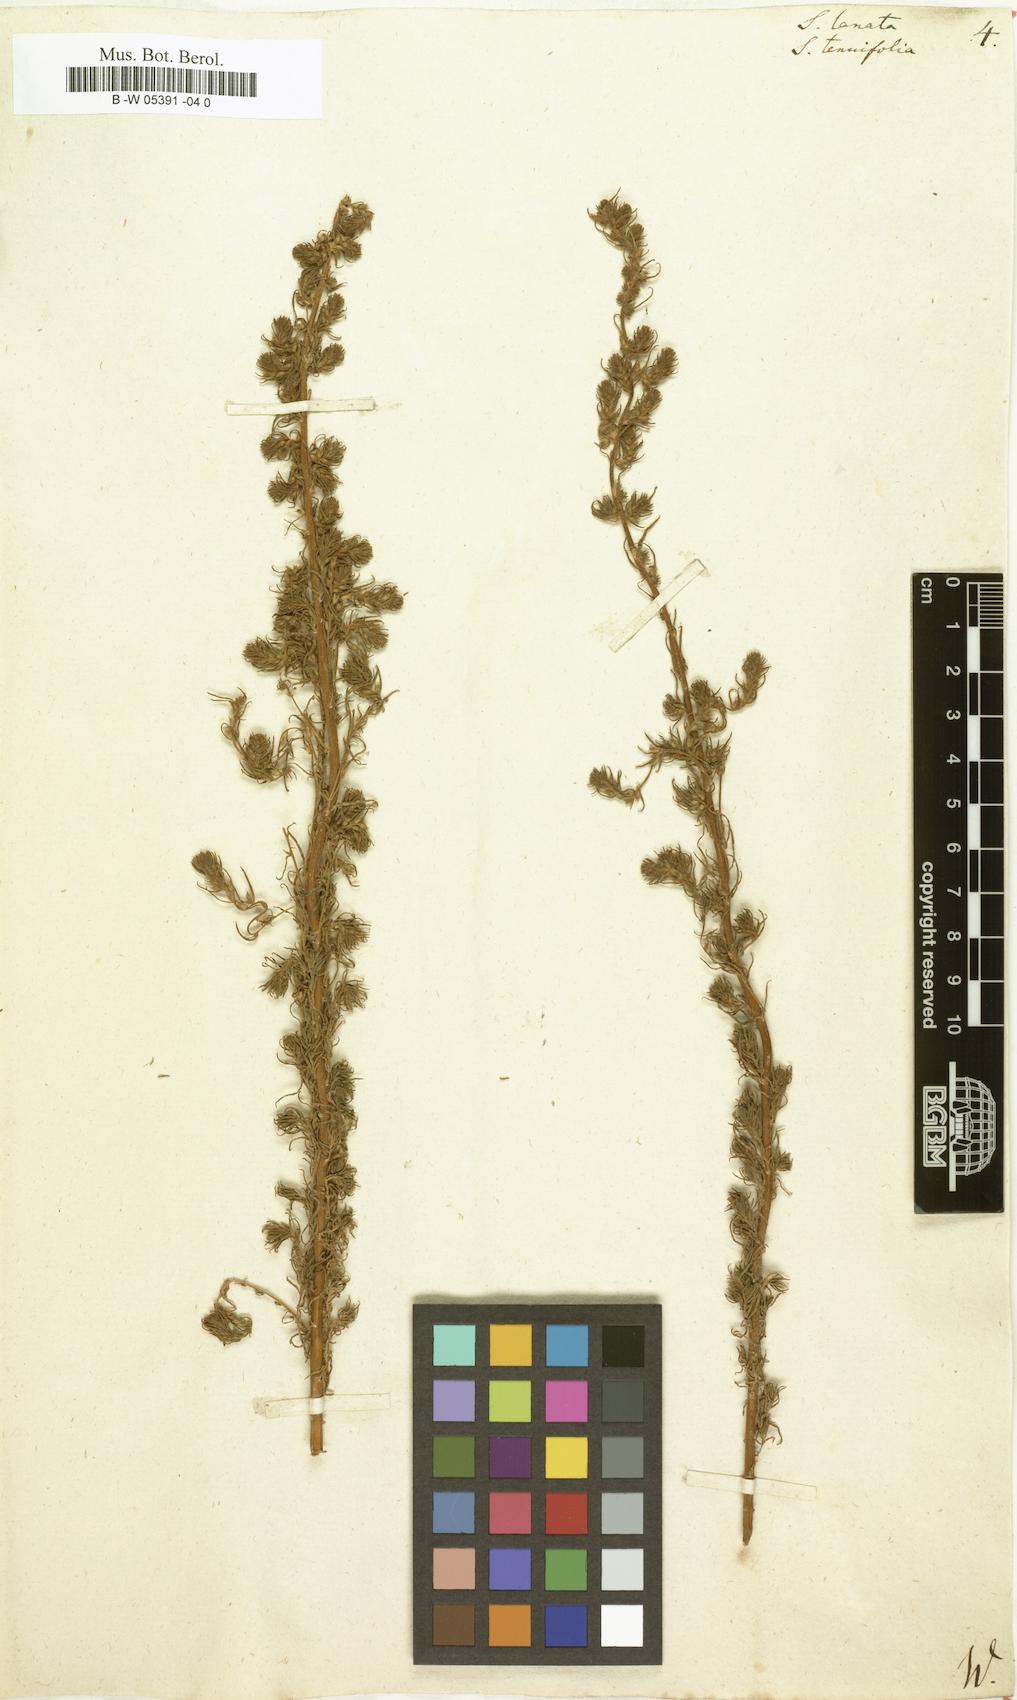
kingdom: Plantae
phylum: Tracheophyta
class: Magnoliopsida
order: Caryophyllales
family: Amaranthaceae
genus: Climacoptera
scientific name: Climacoptera lanata
